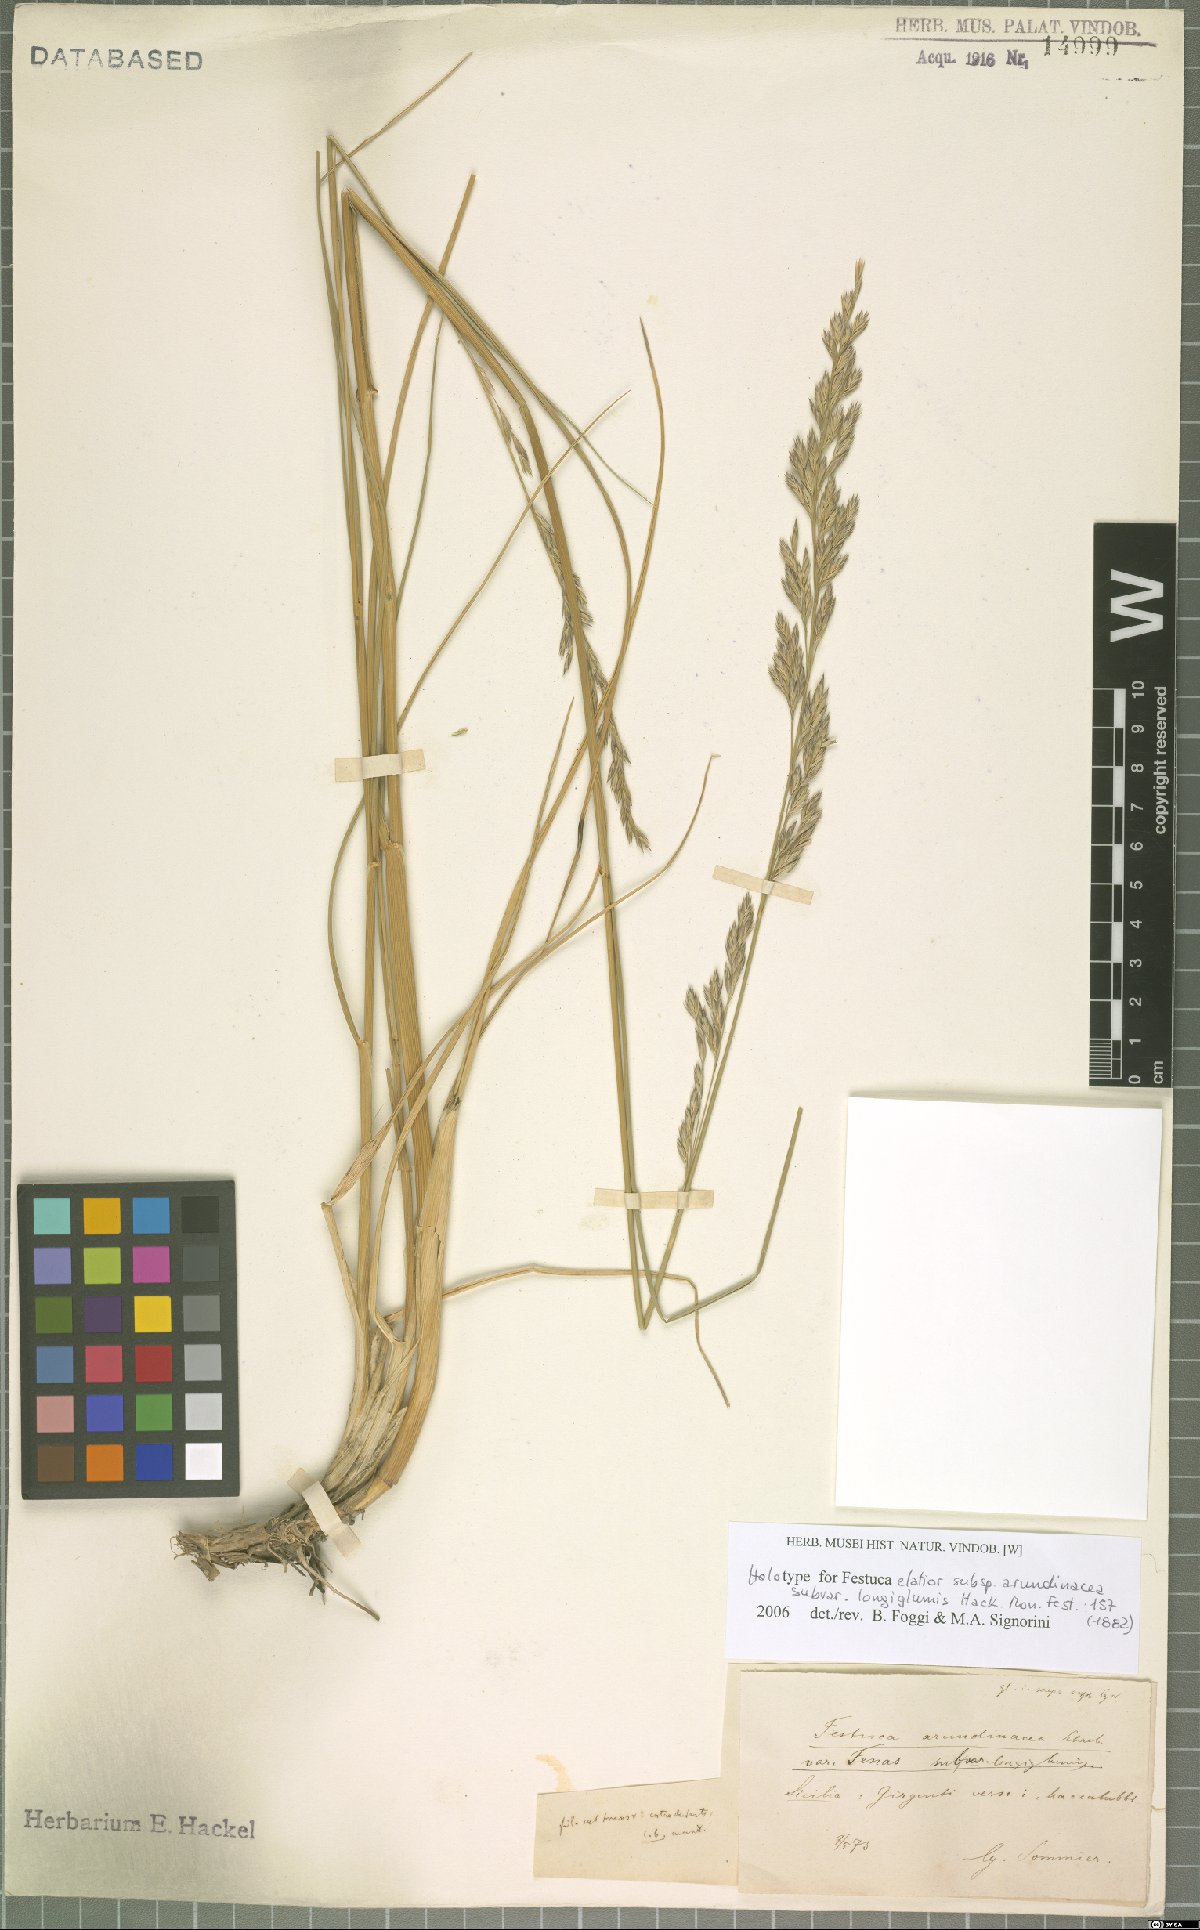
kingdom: Plantae
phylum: Tracheophyta
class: Liliopsida
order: Poales
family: Poaceae
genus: Lolium
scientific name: Lolium arundinaceum
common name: Reed fescue
